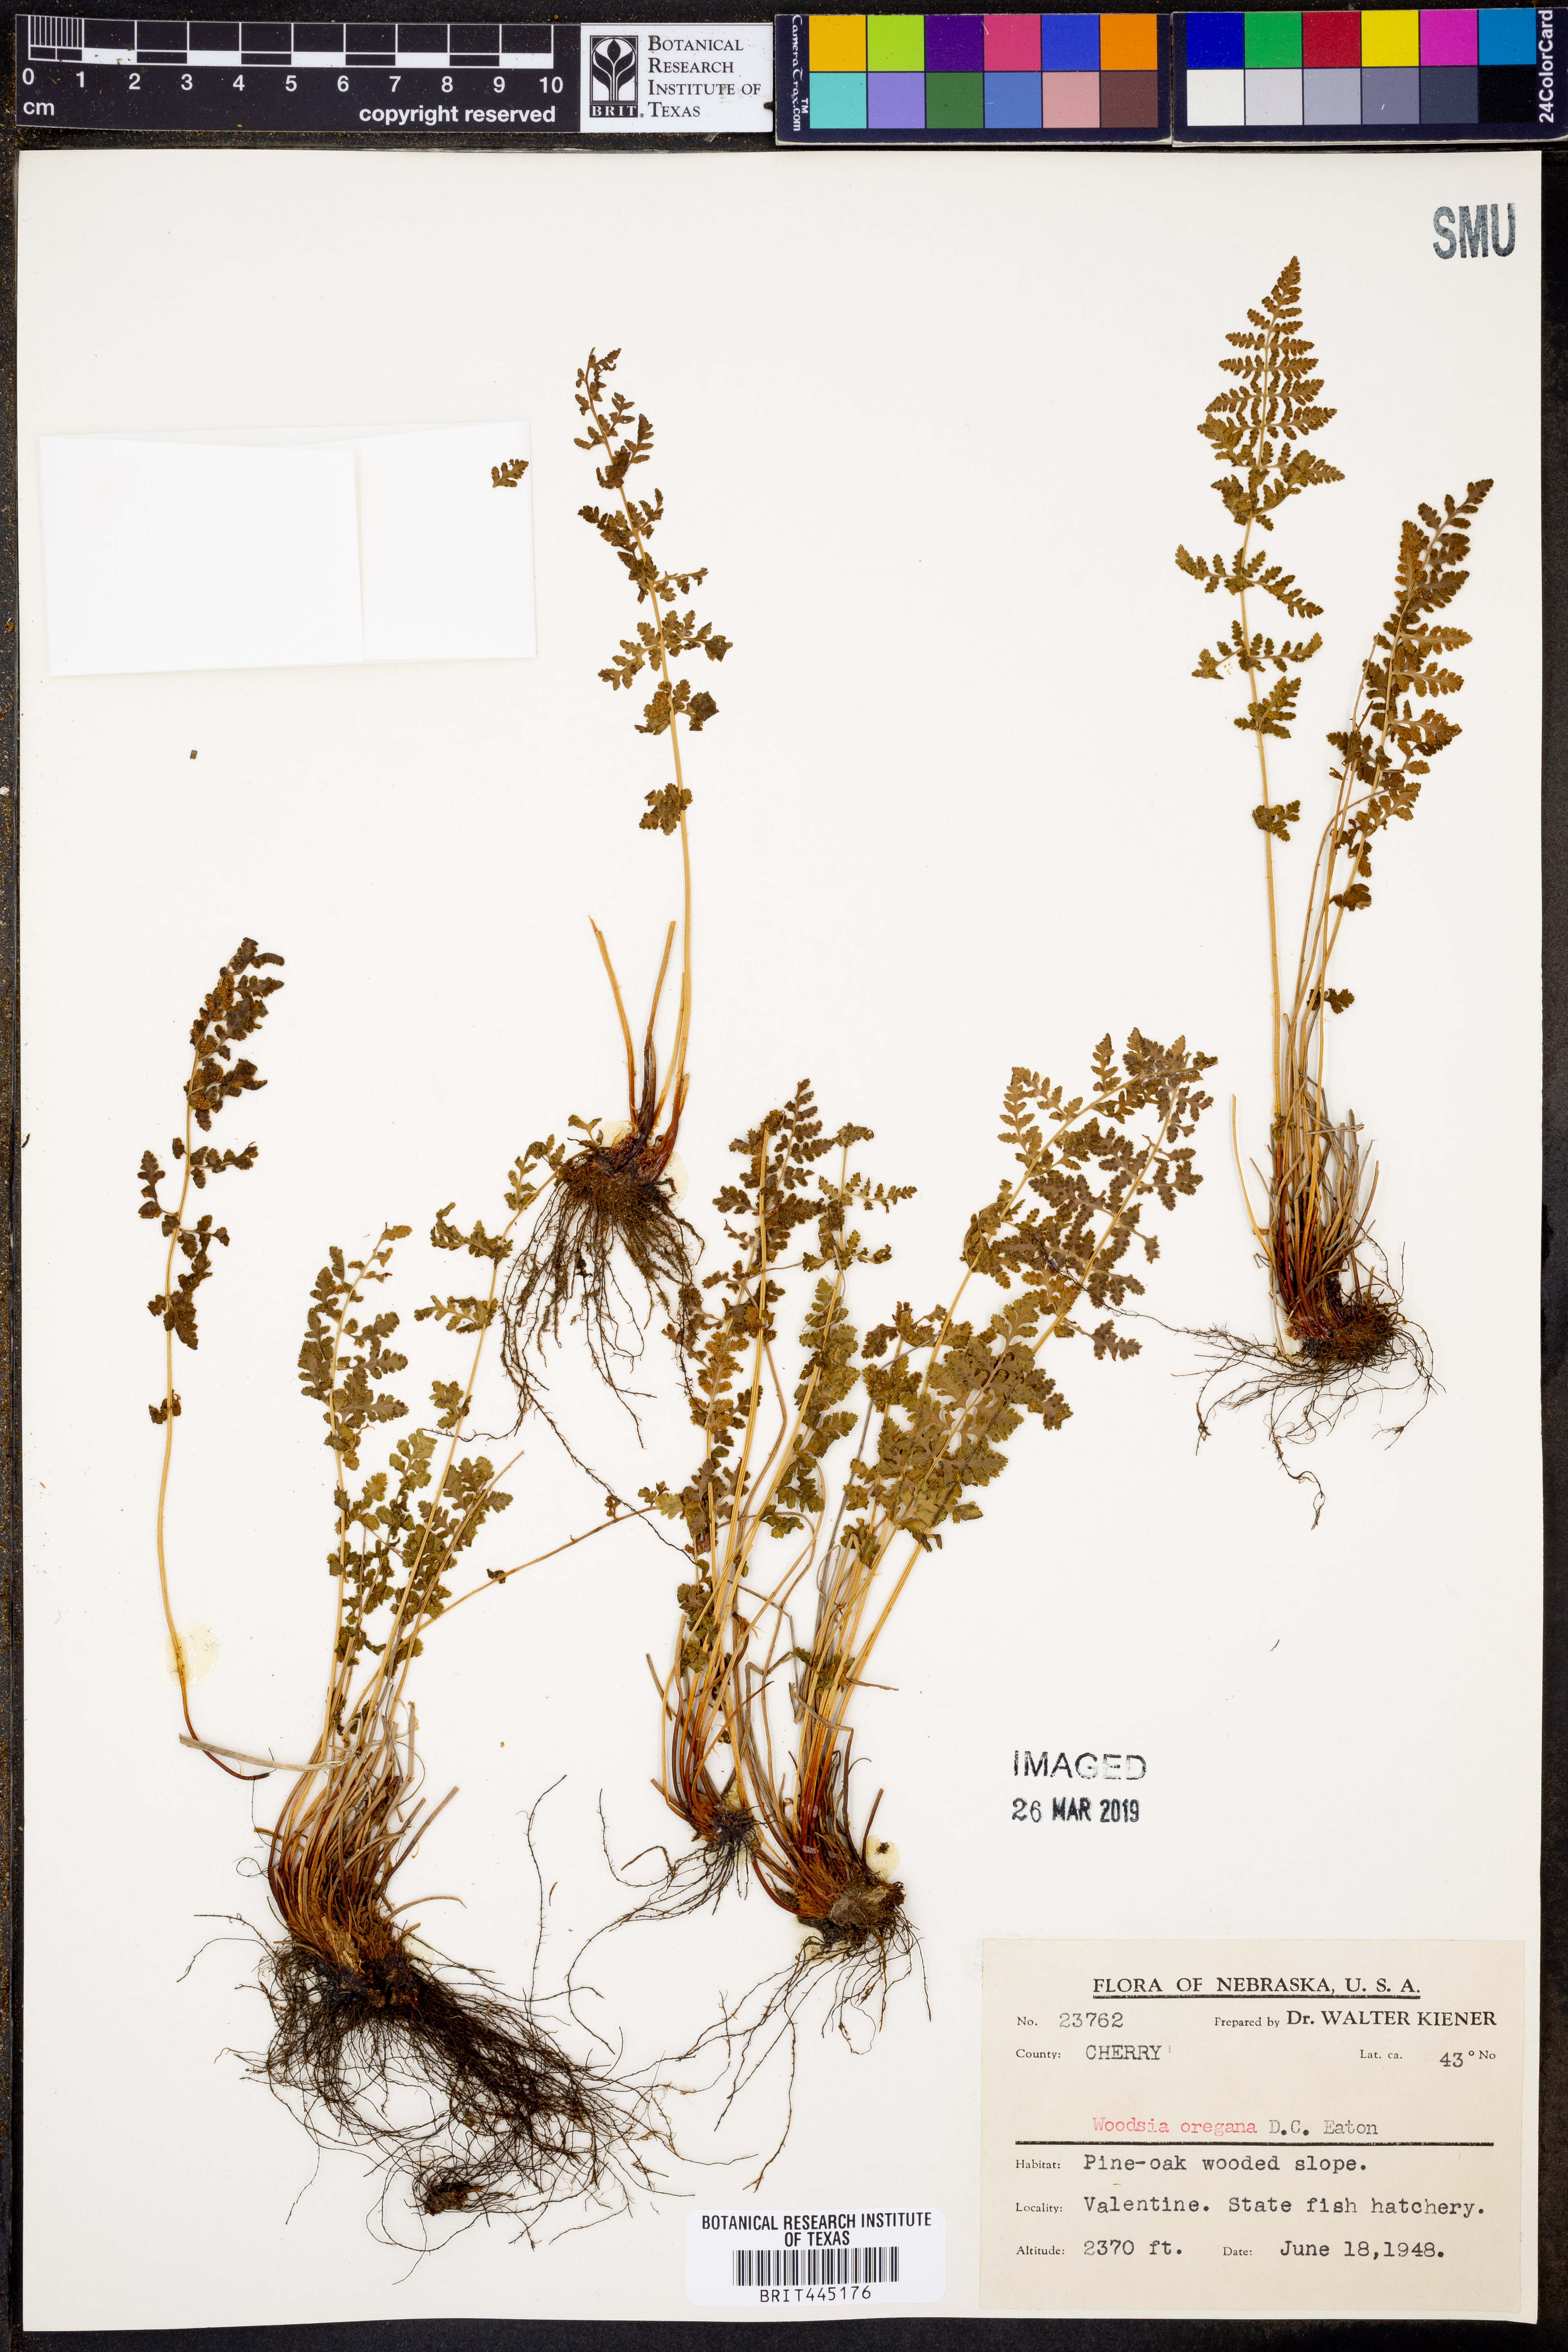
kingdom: Plantae
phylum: Tracheophyta
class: Polypodiopsida
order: Polypodiales
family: Woodsiaceae
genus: Physematium
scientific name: Physematium oreganum
